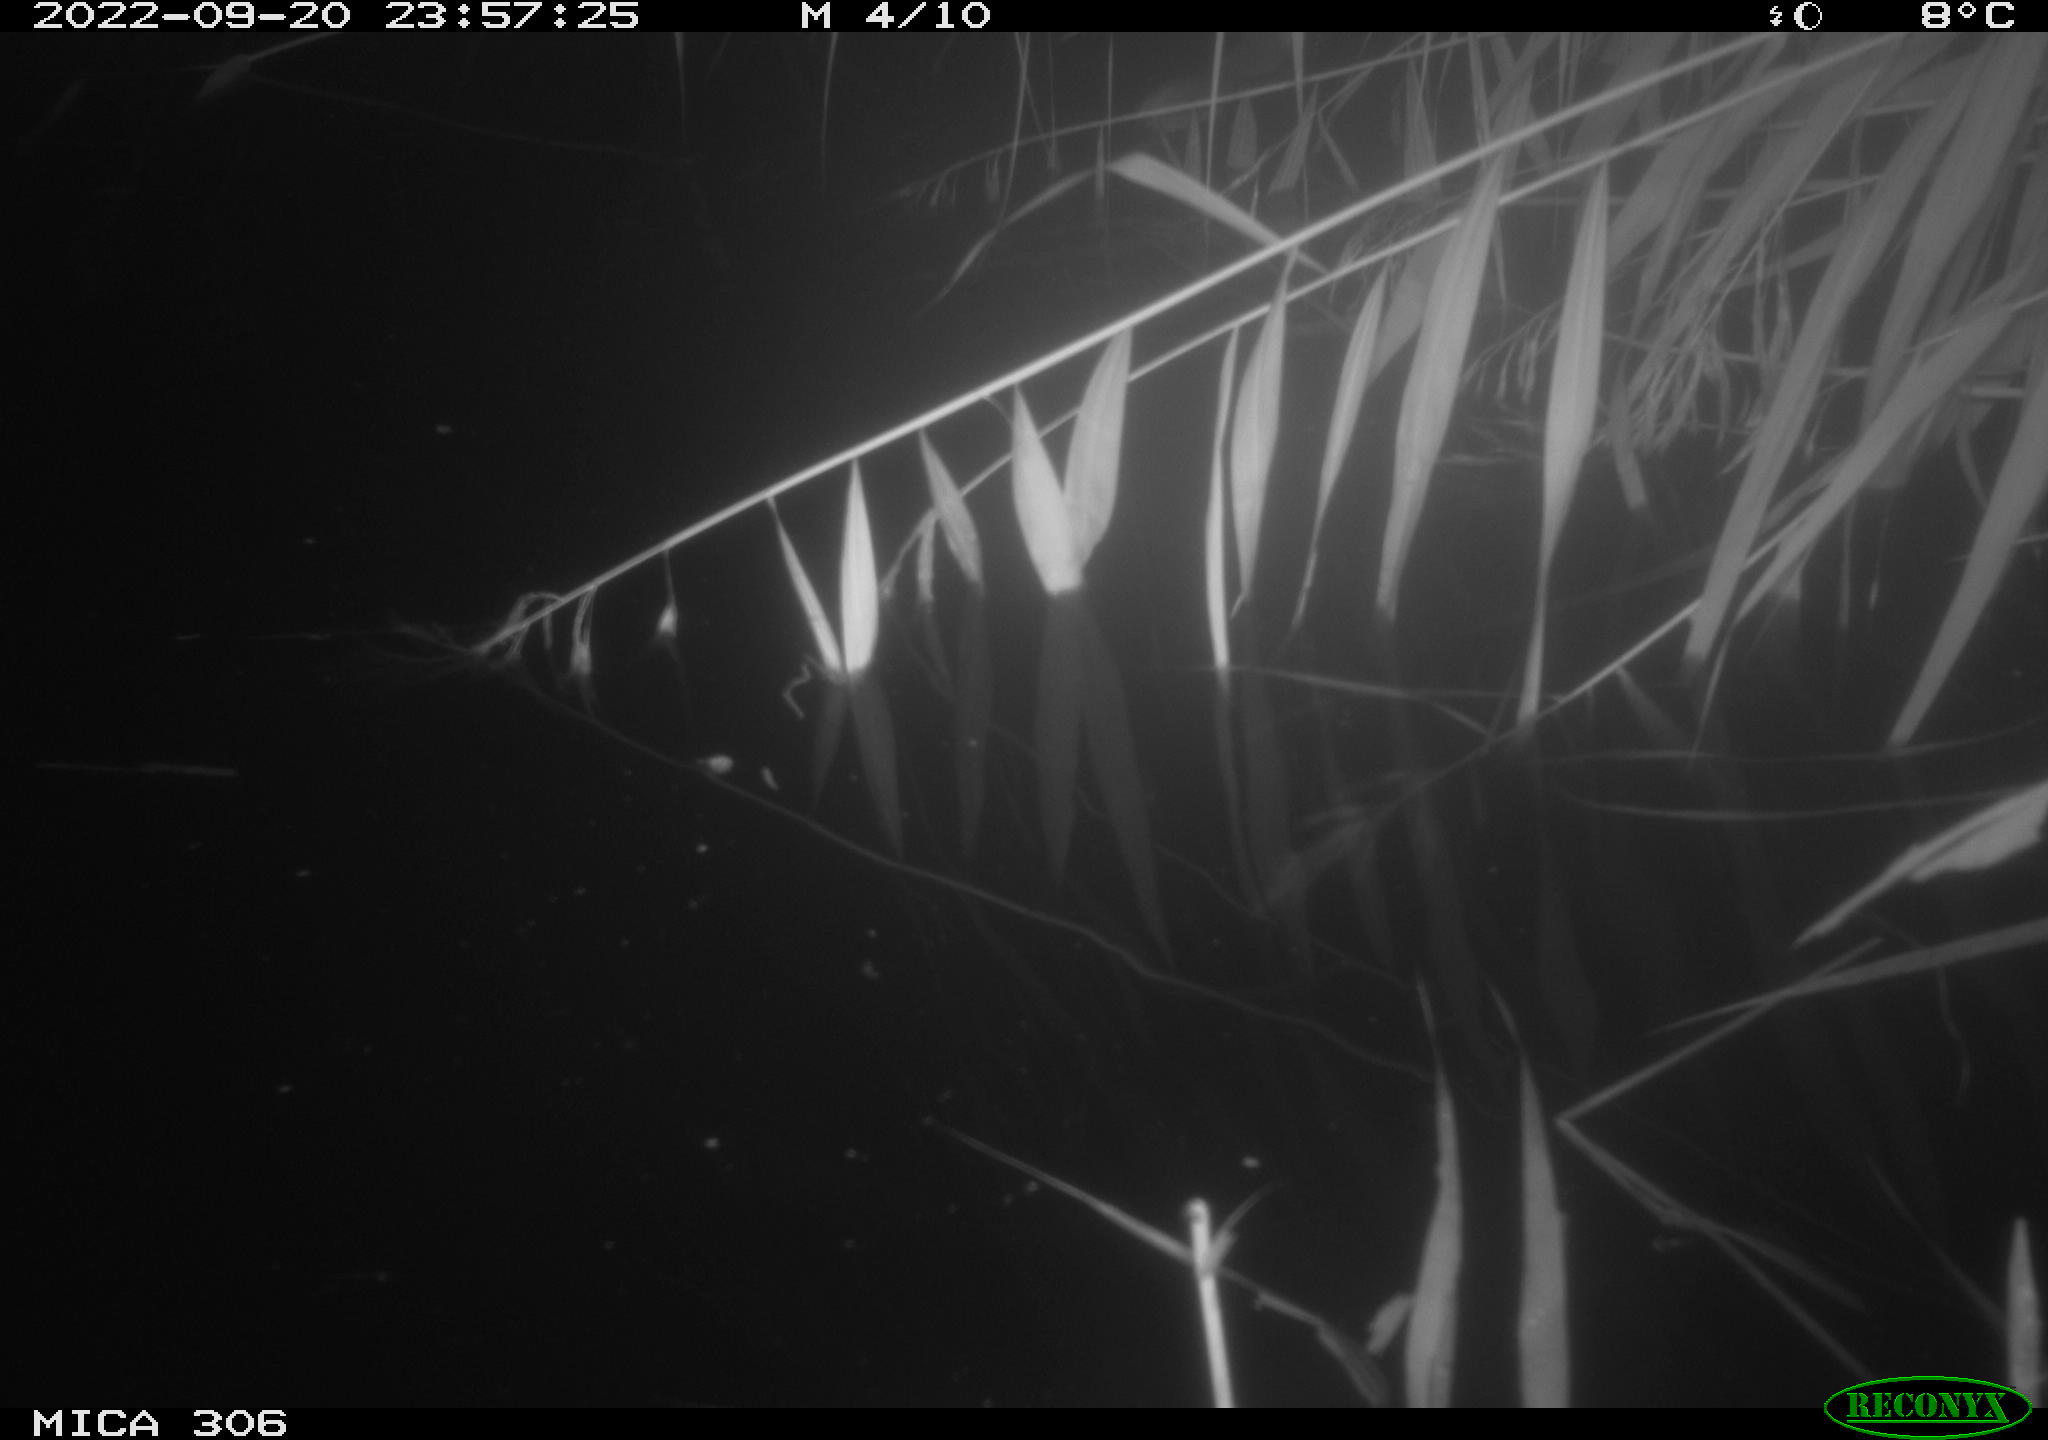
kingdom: Animalia
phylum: Chordata
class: Mammalia
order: Rodentia
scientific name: Rodentia
